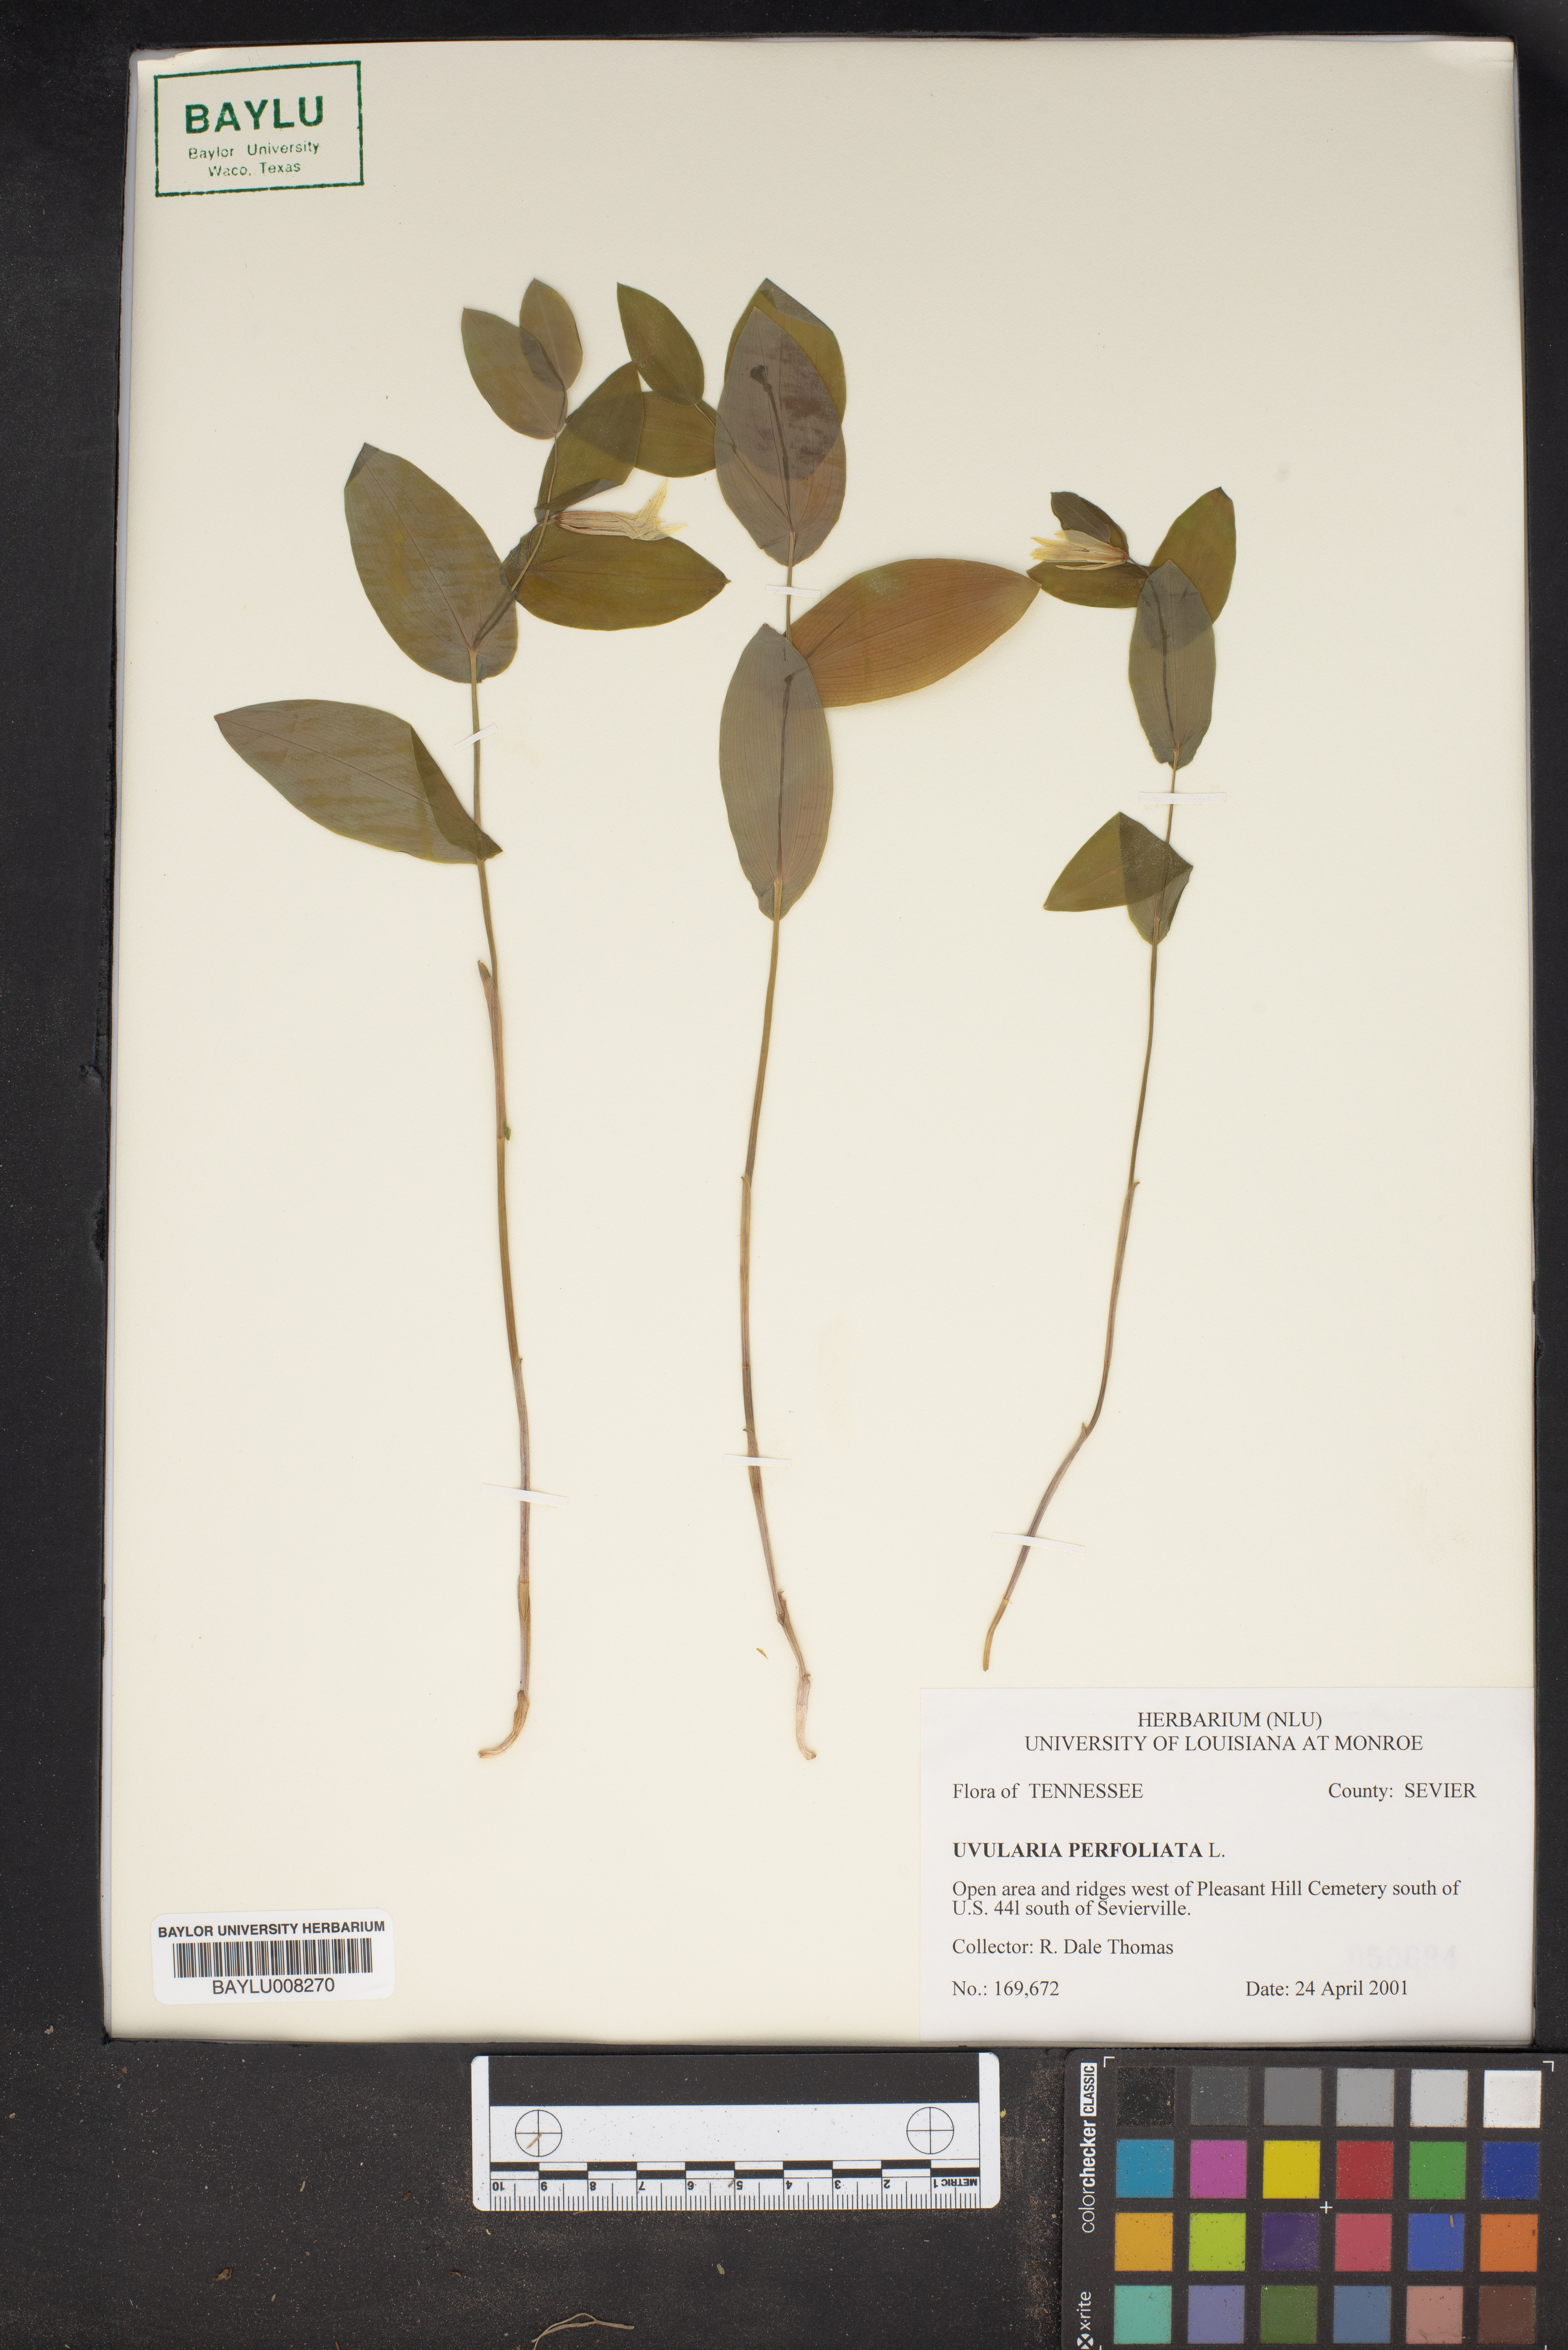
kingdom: Plantae
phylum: Tracheophyta
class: Liliopsida
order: Liliales
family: Colchicaceae
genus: Uvularia
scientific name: Uvularia perfoliata
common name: Perfoliate bellwort
